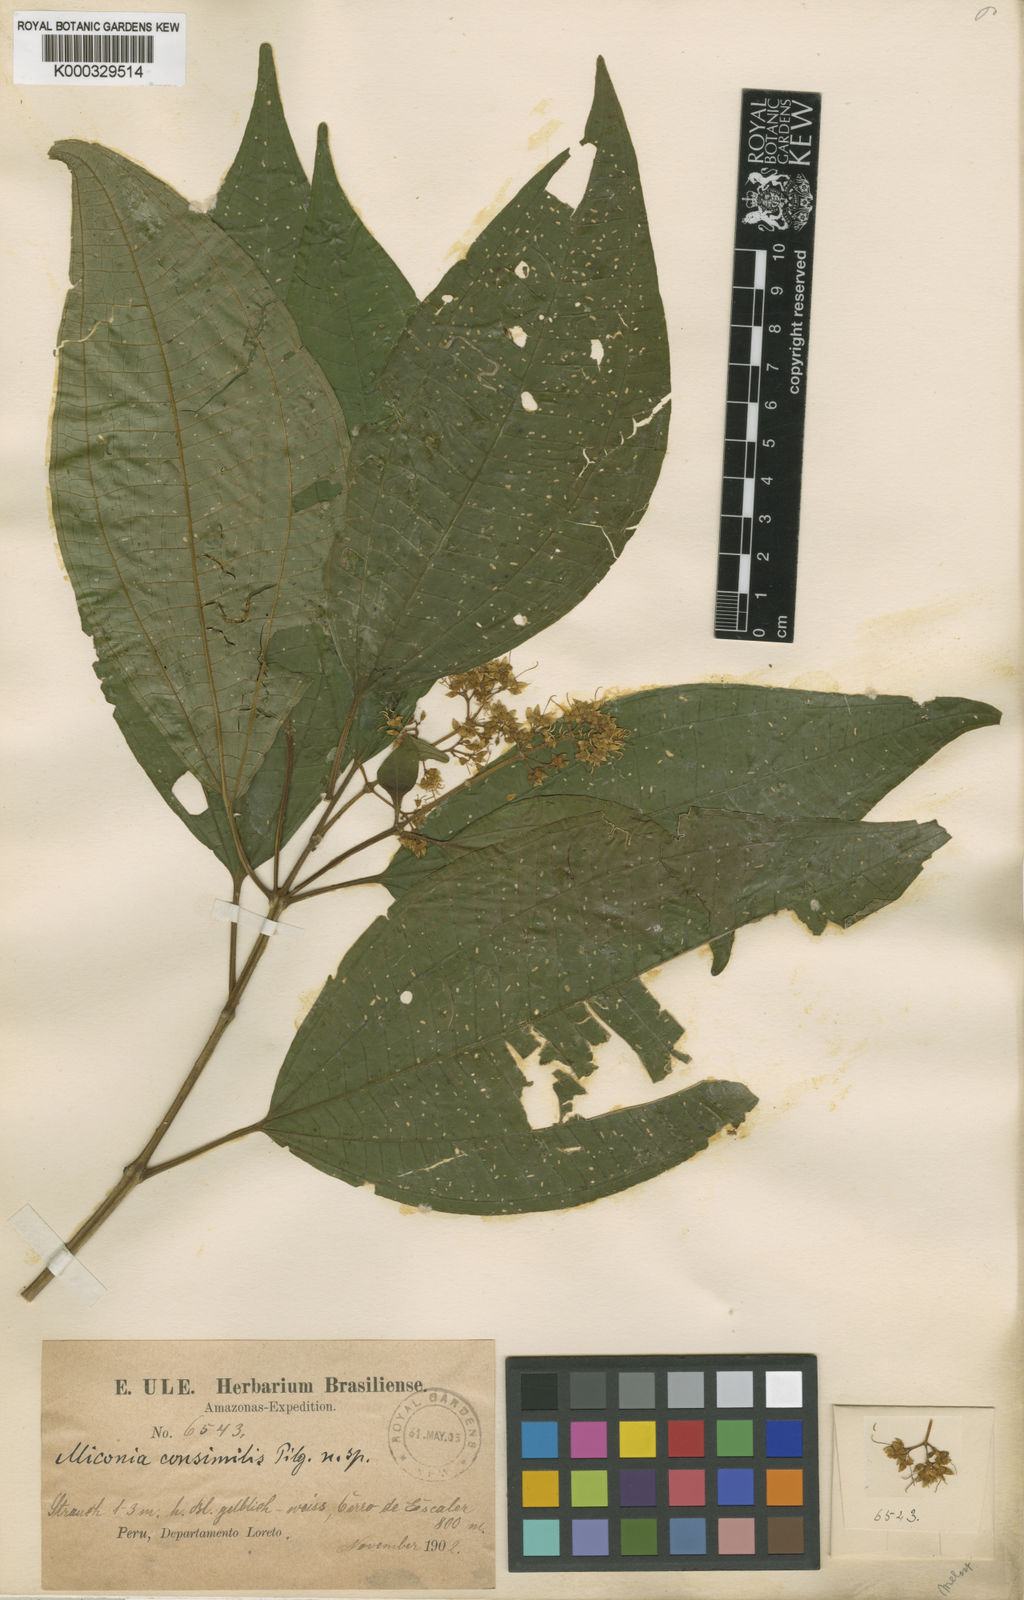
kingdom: Plantae
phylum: Tracheophyta
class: Magnoliopsida
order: Myrtales
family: Melastomataceae
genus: Graffenrieda
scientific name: Graffenrieda gracilis
